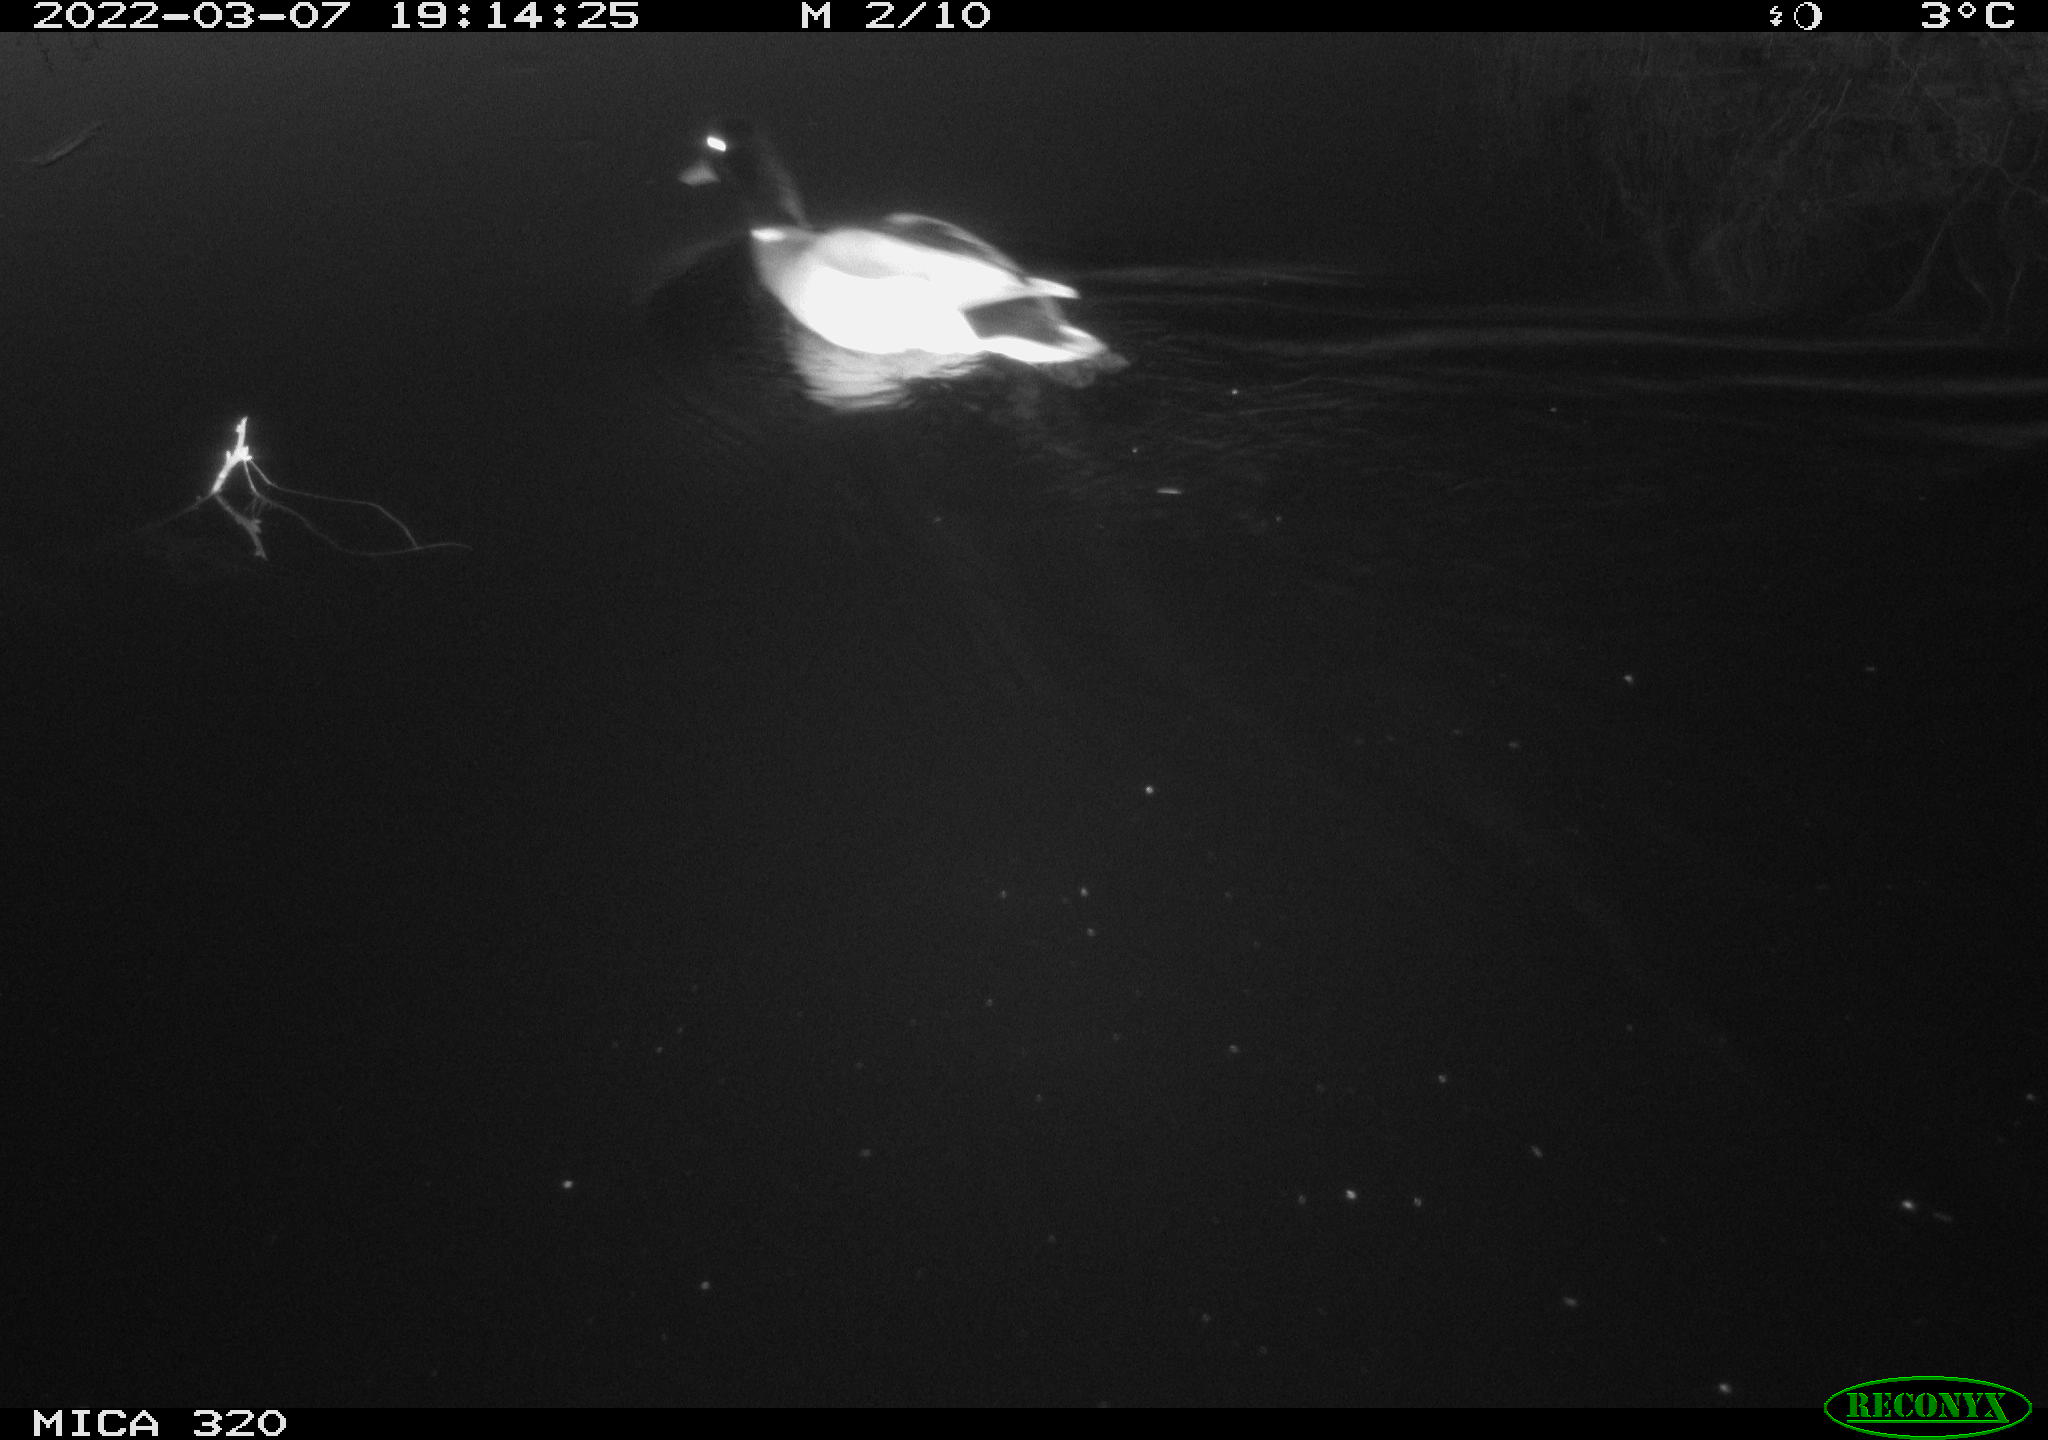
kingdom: Animalia
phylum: Chordata
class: Aves
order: Anseriformes
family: Anatidae
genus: Anas
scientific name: Anas platyrhynchos
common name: Mallard
